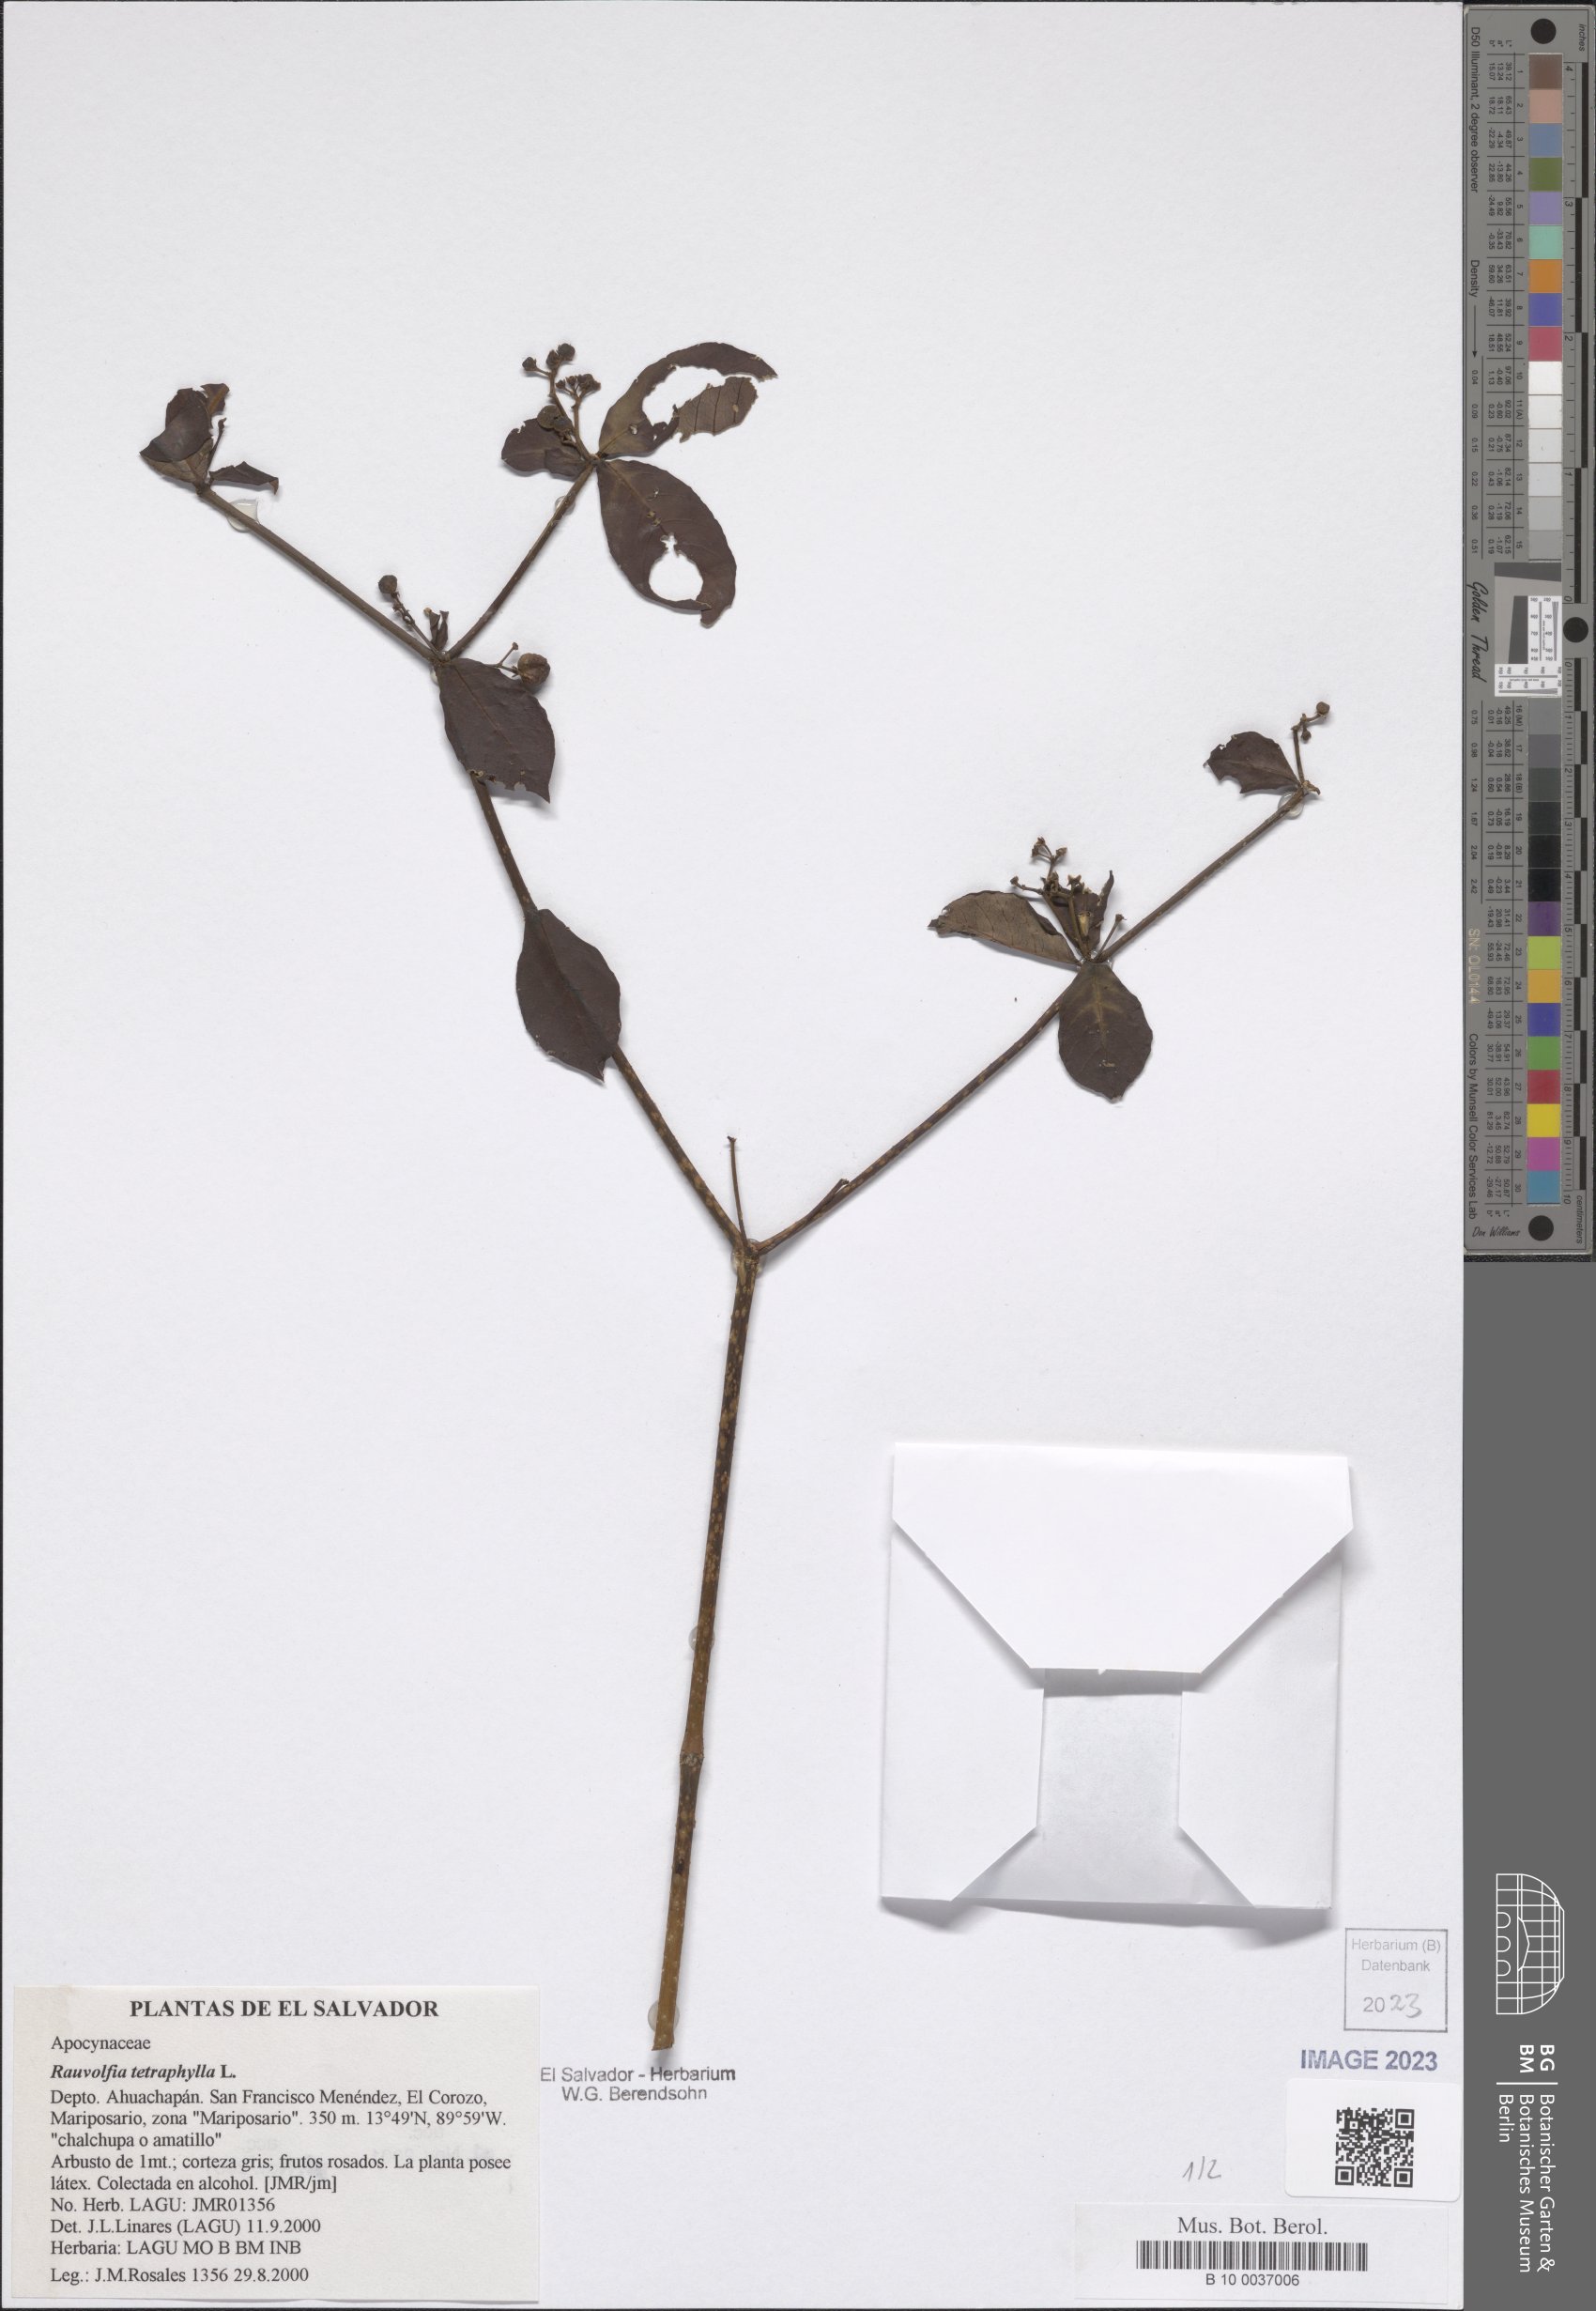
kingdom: Plantae
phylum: Tracheophyta
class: Magnoliopsida
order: Gentianales
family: Apocynaceae
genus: Rauvolfia
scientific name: Rauvolfia tetraphylla
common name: Four-leaf devil-pepper
